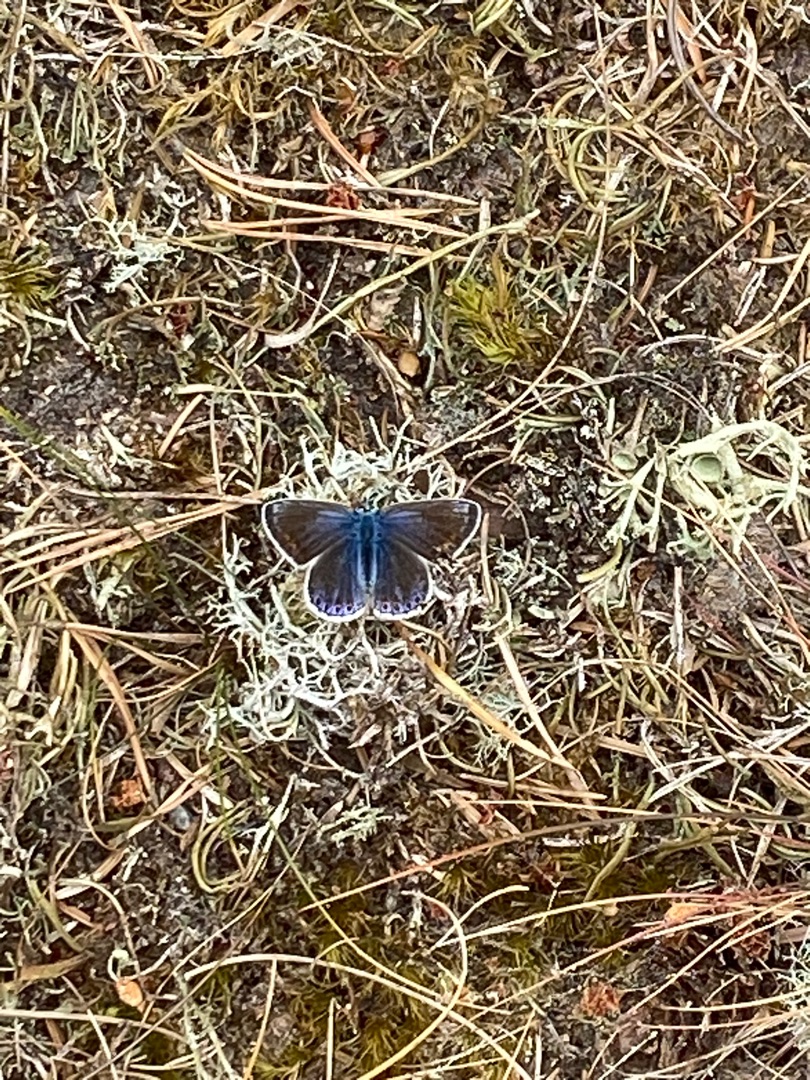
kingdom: Animalia
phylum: Arthropoda
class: Insecta
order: Lepidoptera
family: Lycaenidae
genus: Polyommatus
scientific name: Polyommatus icarus
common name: Almindelig blåfugl
